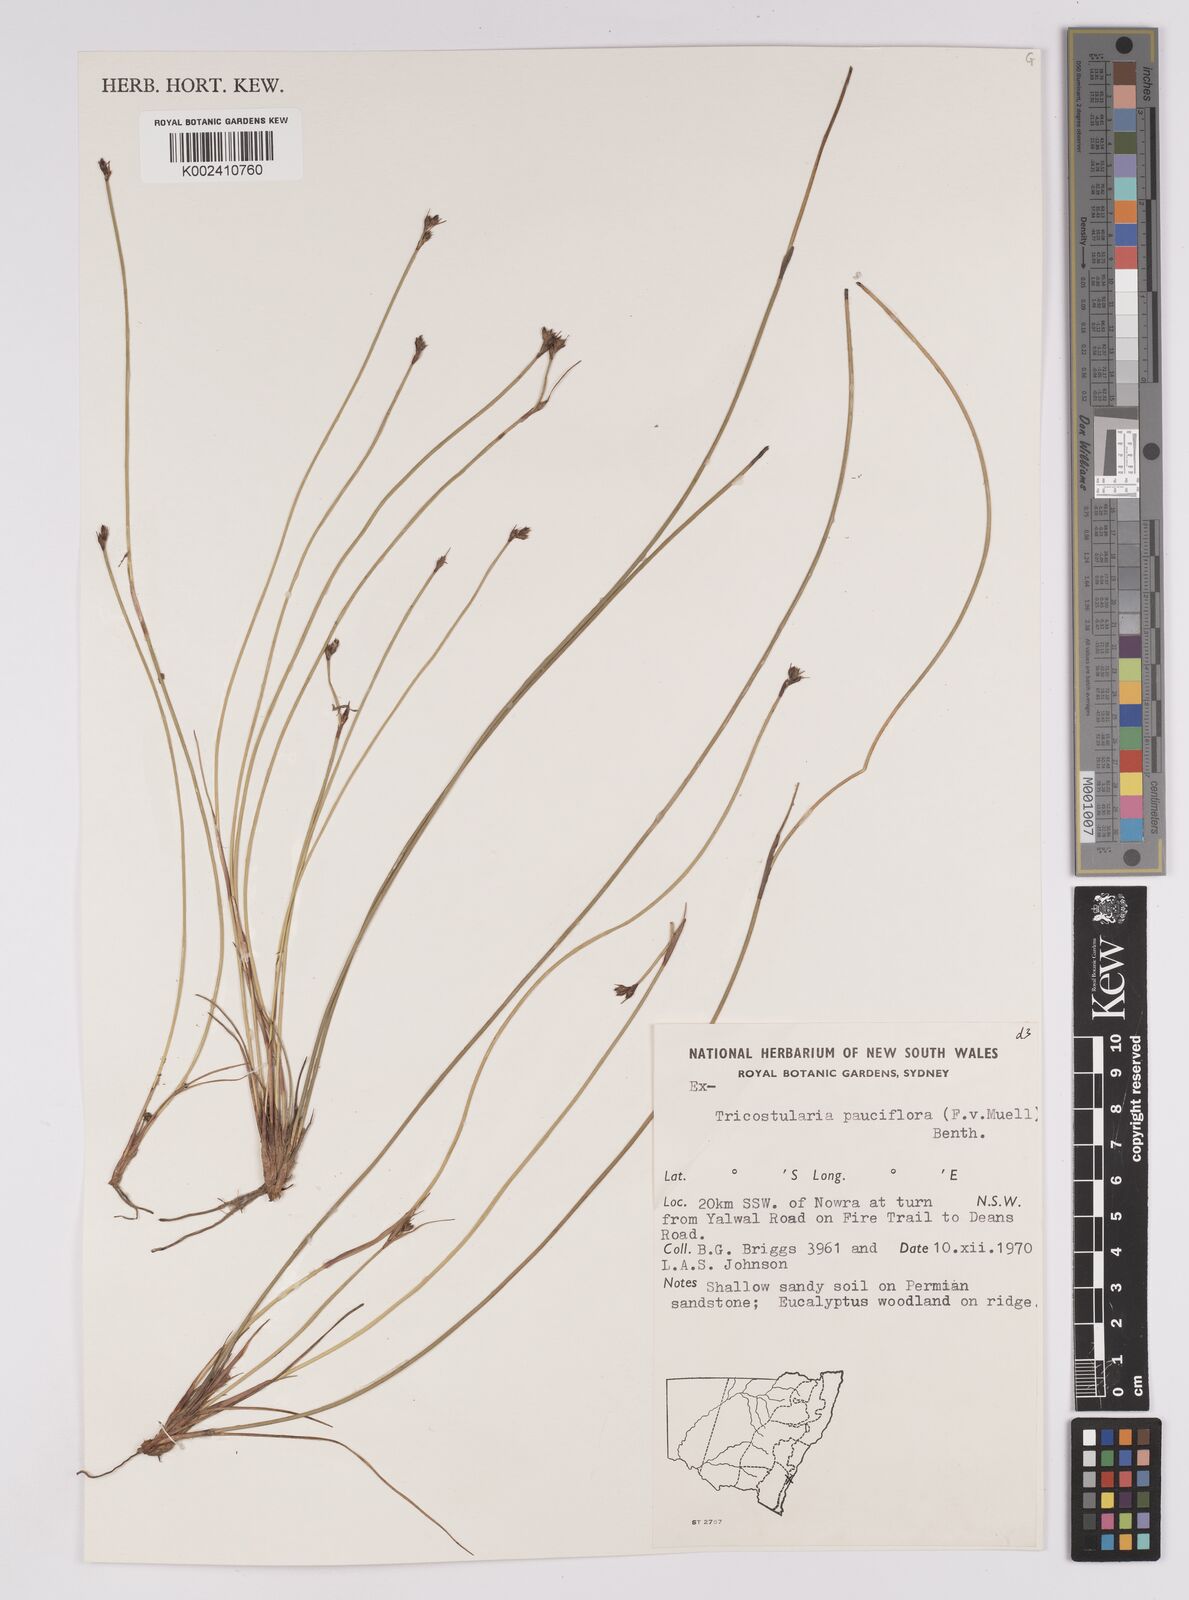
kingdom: Plantae
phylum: Tracheophyta
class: Liliopsida
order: Poales
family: Cyperaceae
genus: Tricostularia
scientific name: Tricostularia pauciflora
